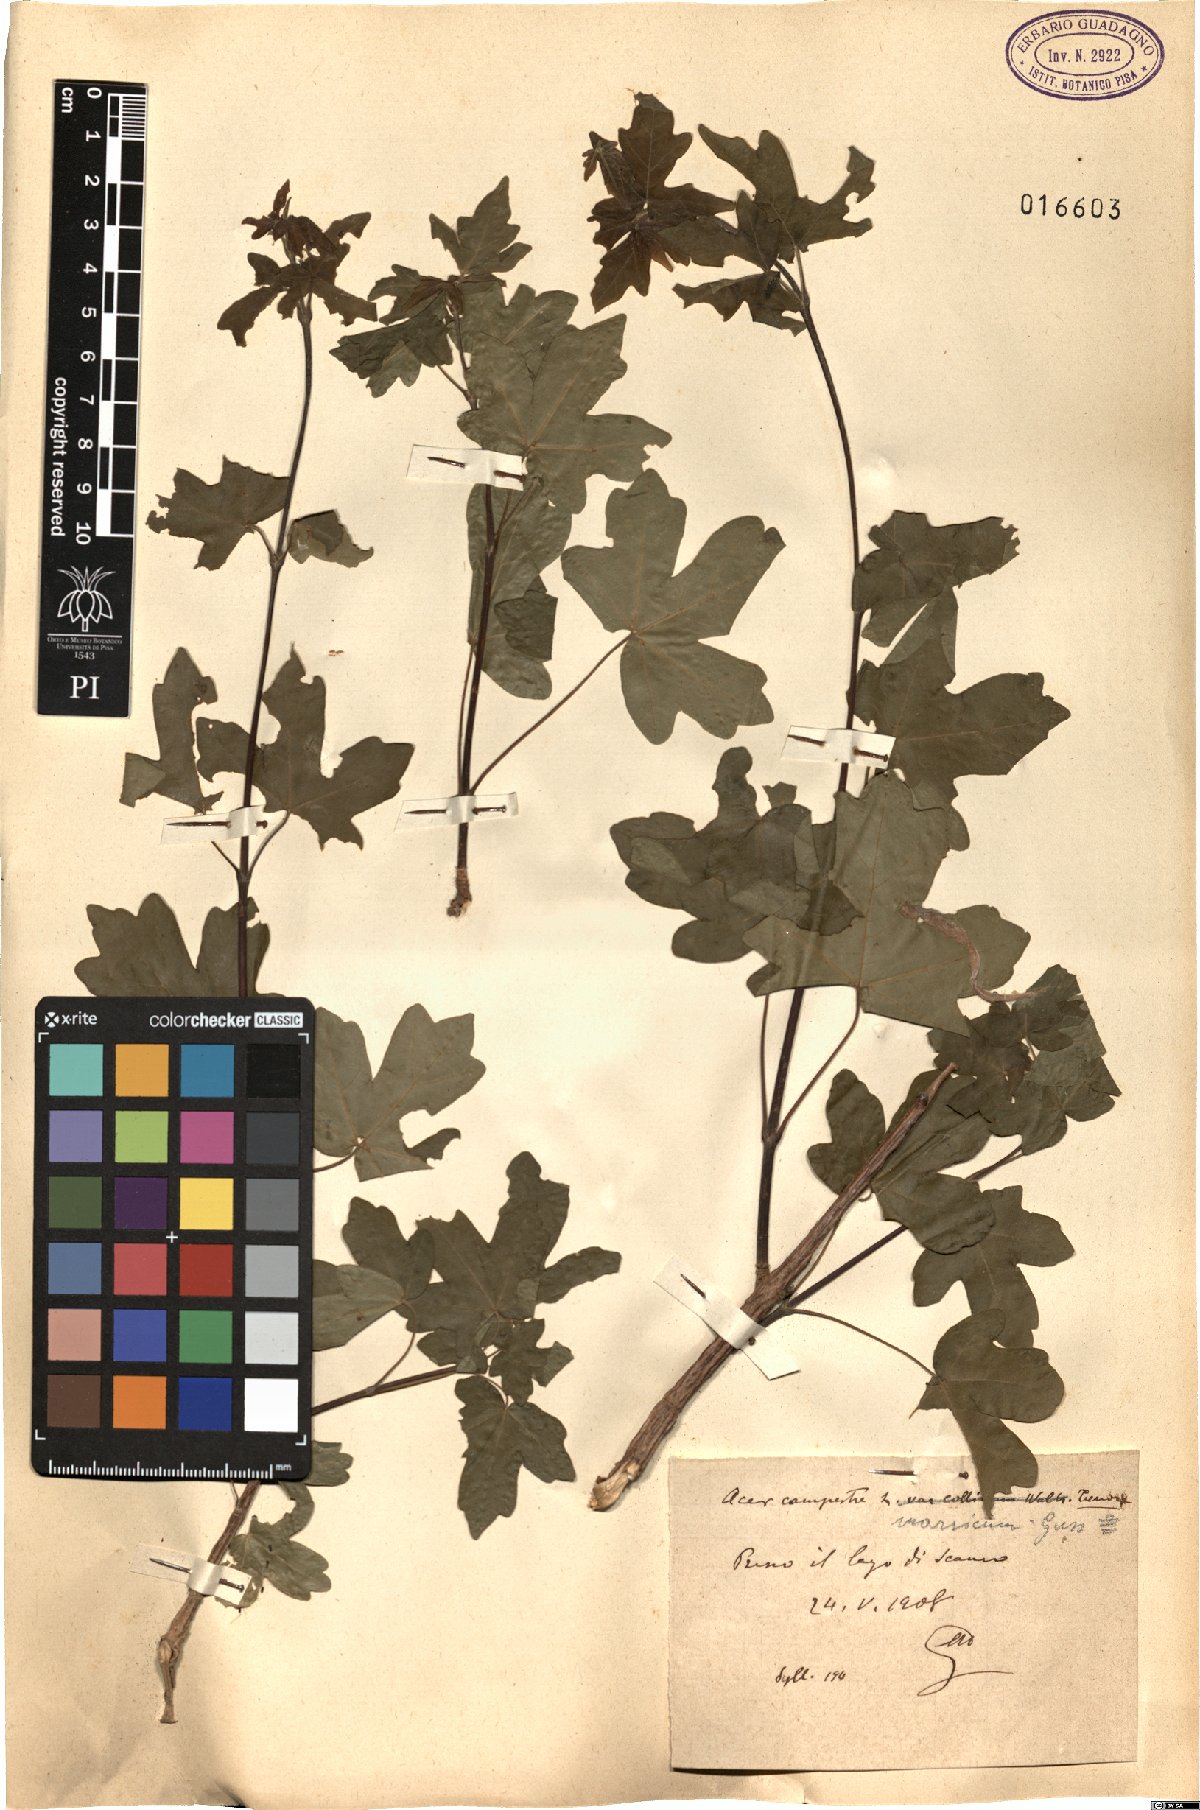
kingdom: Plantae
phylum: Tracheophyta
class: Magnoliopsida
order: Sapindales
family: Sapindaceae
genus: Acer
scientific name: Acer campestre
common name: Field maple
